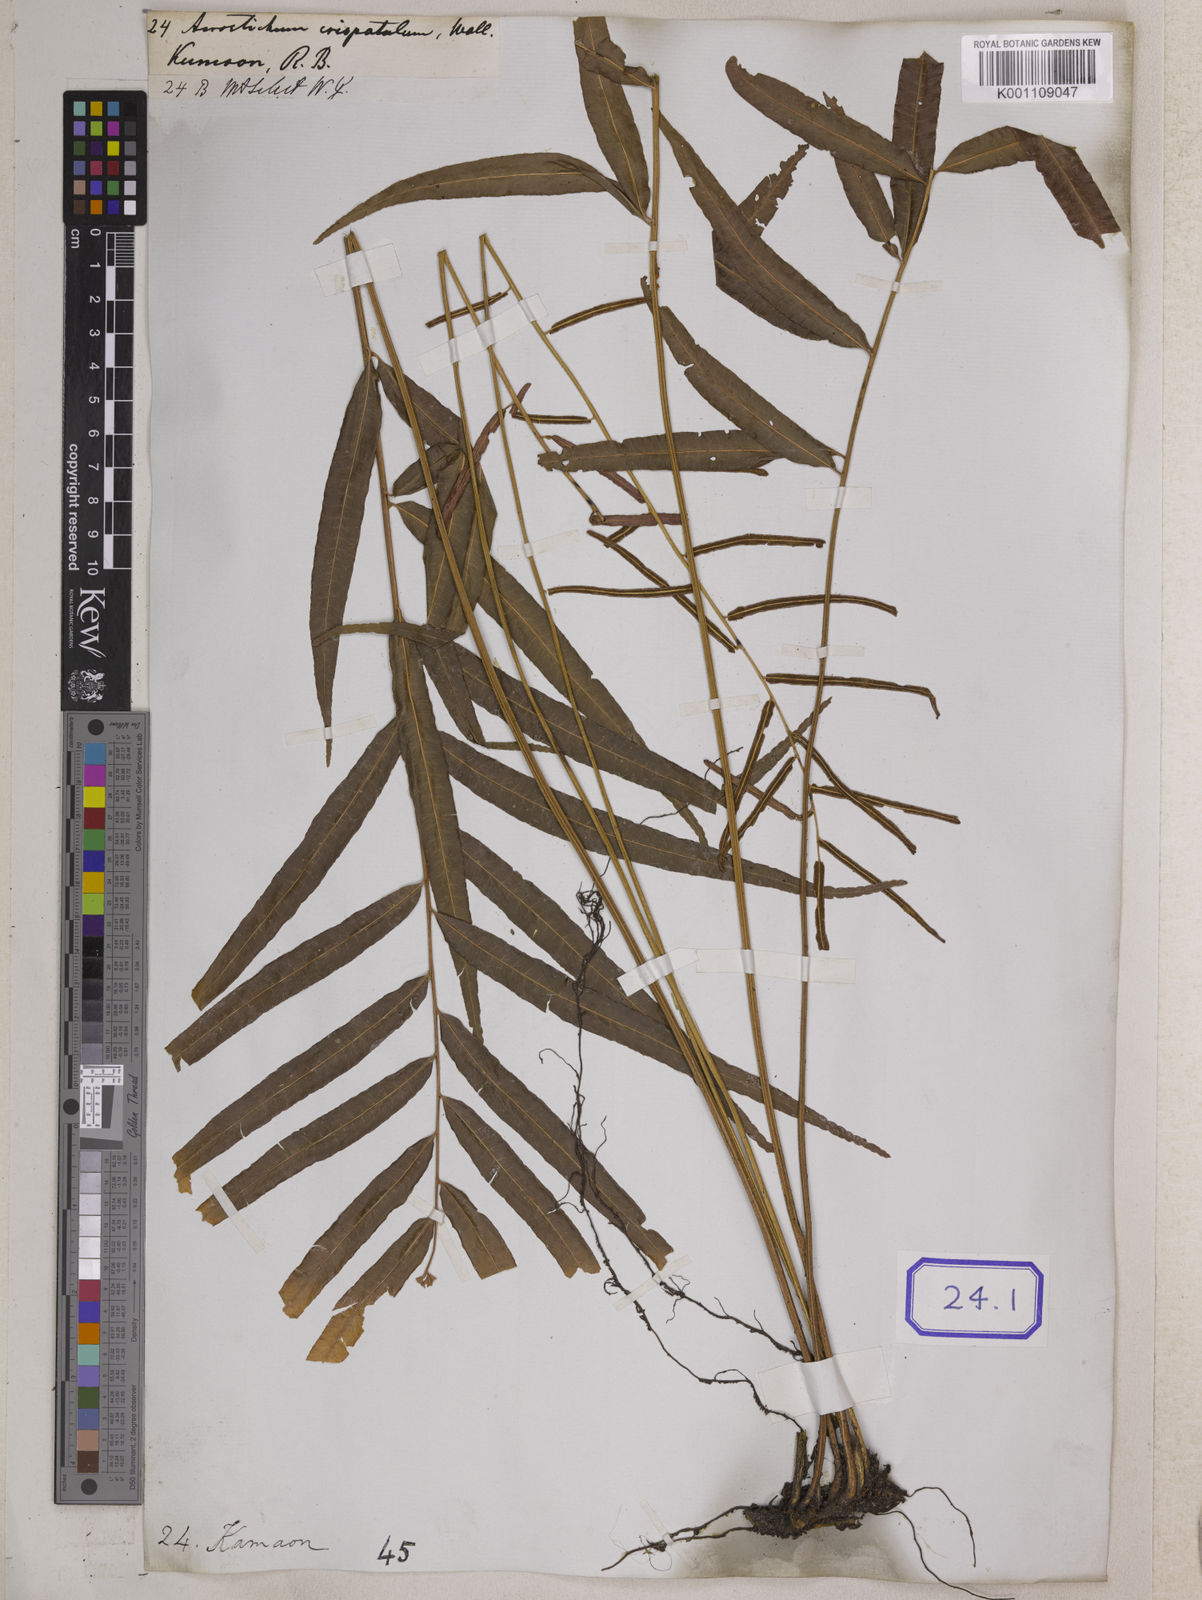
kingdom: Plantae
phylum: Tracheophyta
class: Polypodiopsida
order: Polypodiales
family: Dryopteridaceae
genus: Bolbitis
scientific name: Bolbitis crispatula
